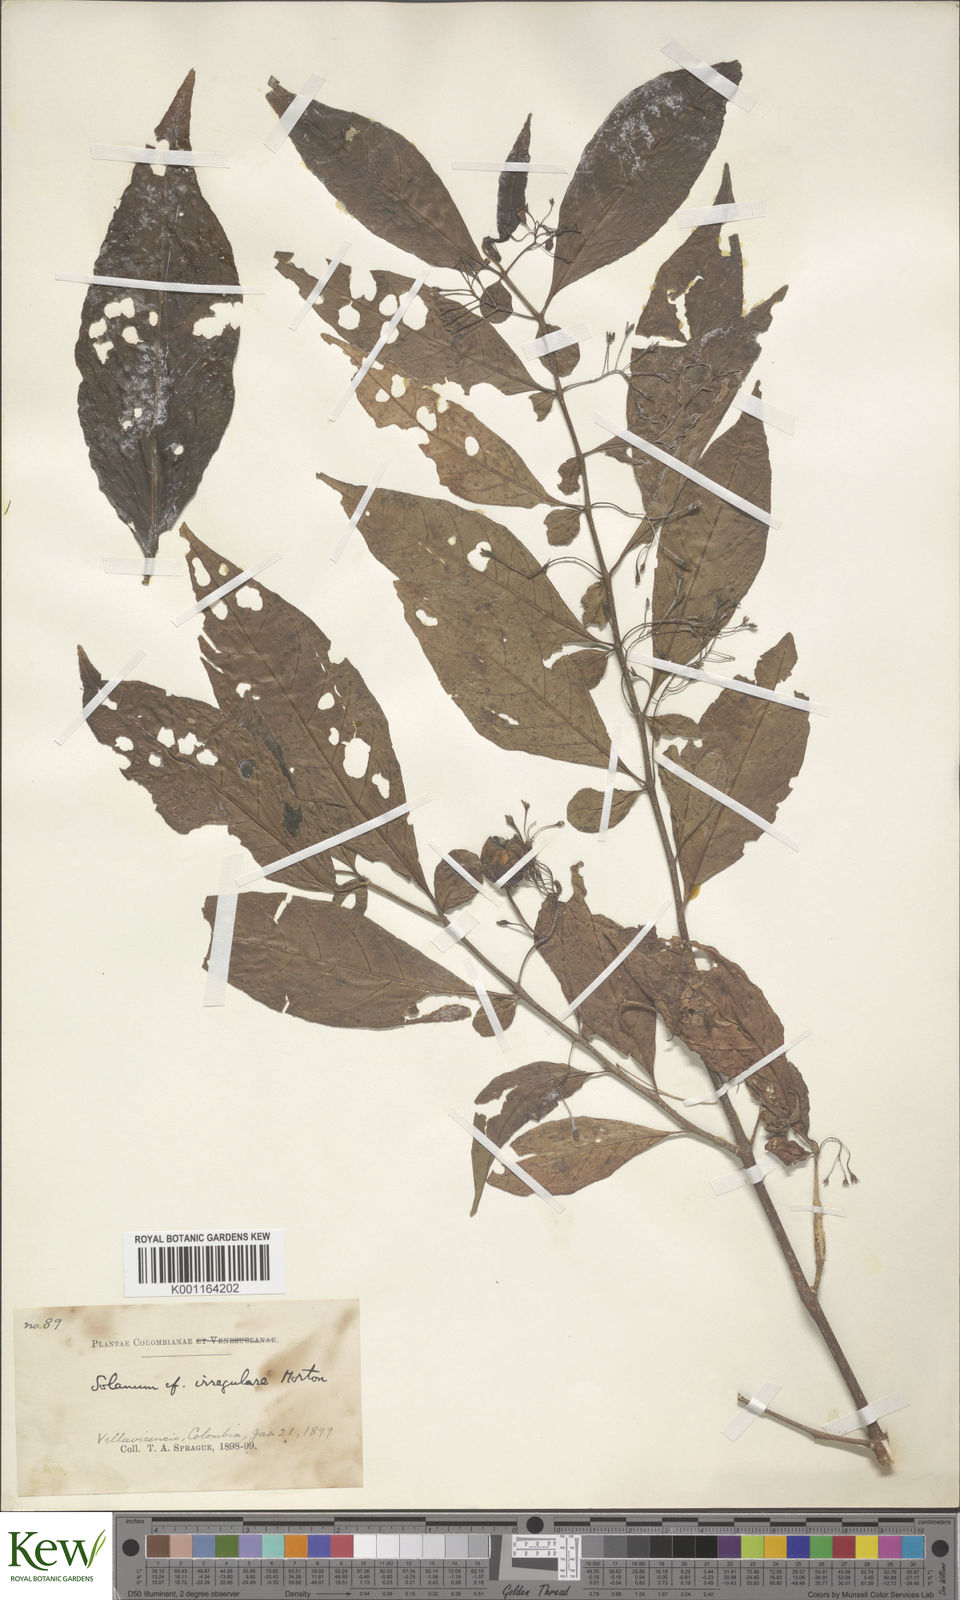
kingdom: Plantae
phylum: Tracheophyta
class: Magnoliopsida
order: Solanales
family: Solanaceae
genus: Solanum
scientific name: Solanum irregulare
